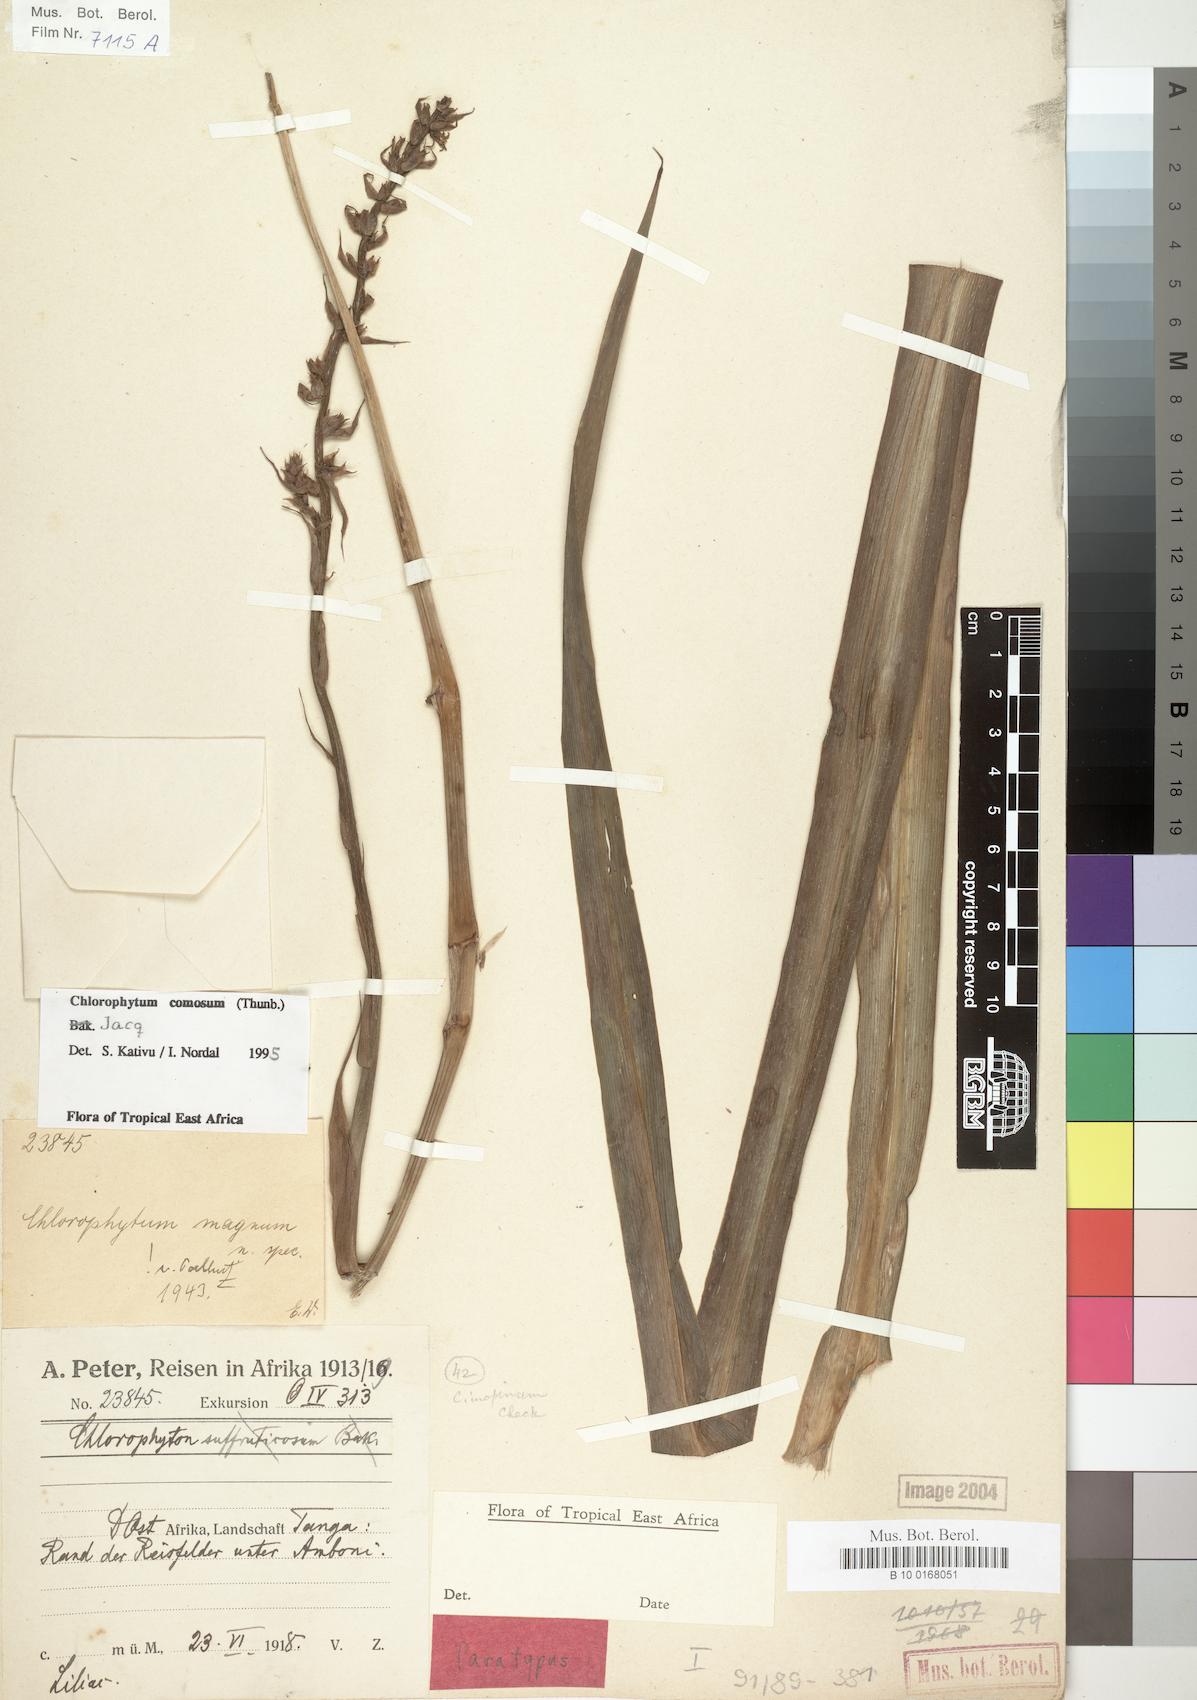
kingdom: Plantae
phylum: Tracheophyta
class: Liliopsida
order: Asparagales
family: Asparagaceae
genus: Chlorophytum
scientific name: Chlorophytum comosum
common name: Spider plant
